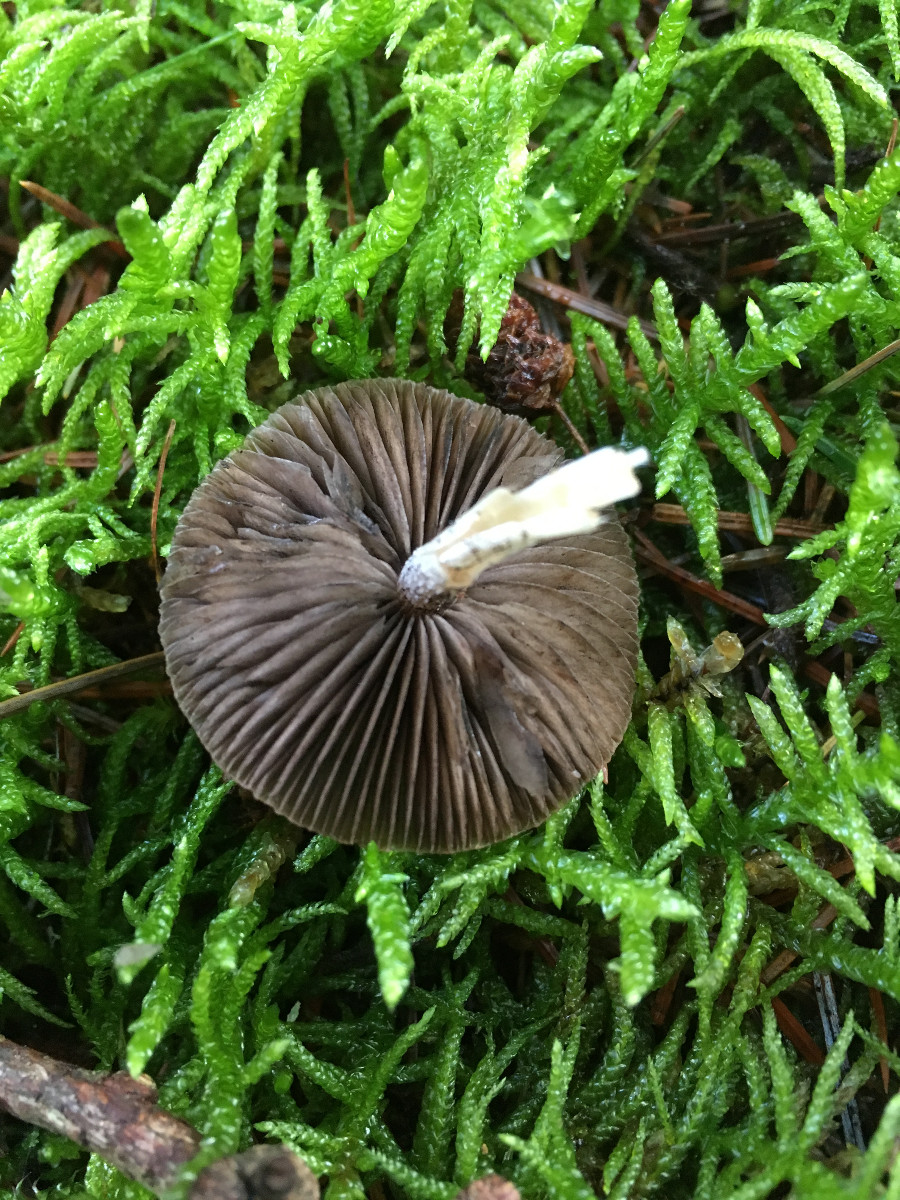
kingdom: Fungi
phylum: Basidiomycota
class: Agaricomycetes
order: Agaricales
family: Psathyrellaceae
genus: Psathyrella
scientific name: Psathyrella
